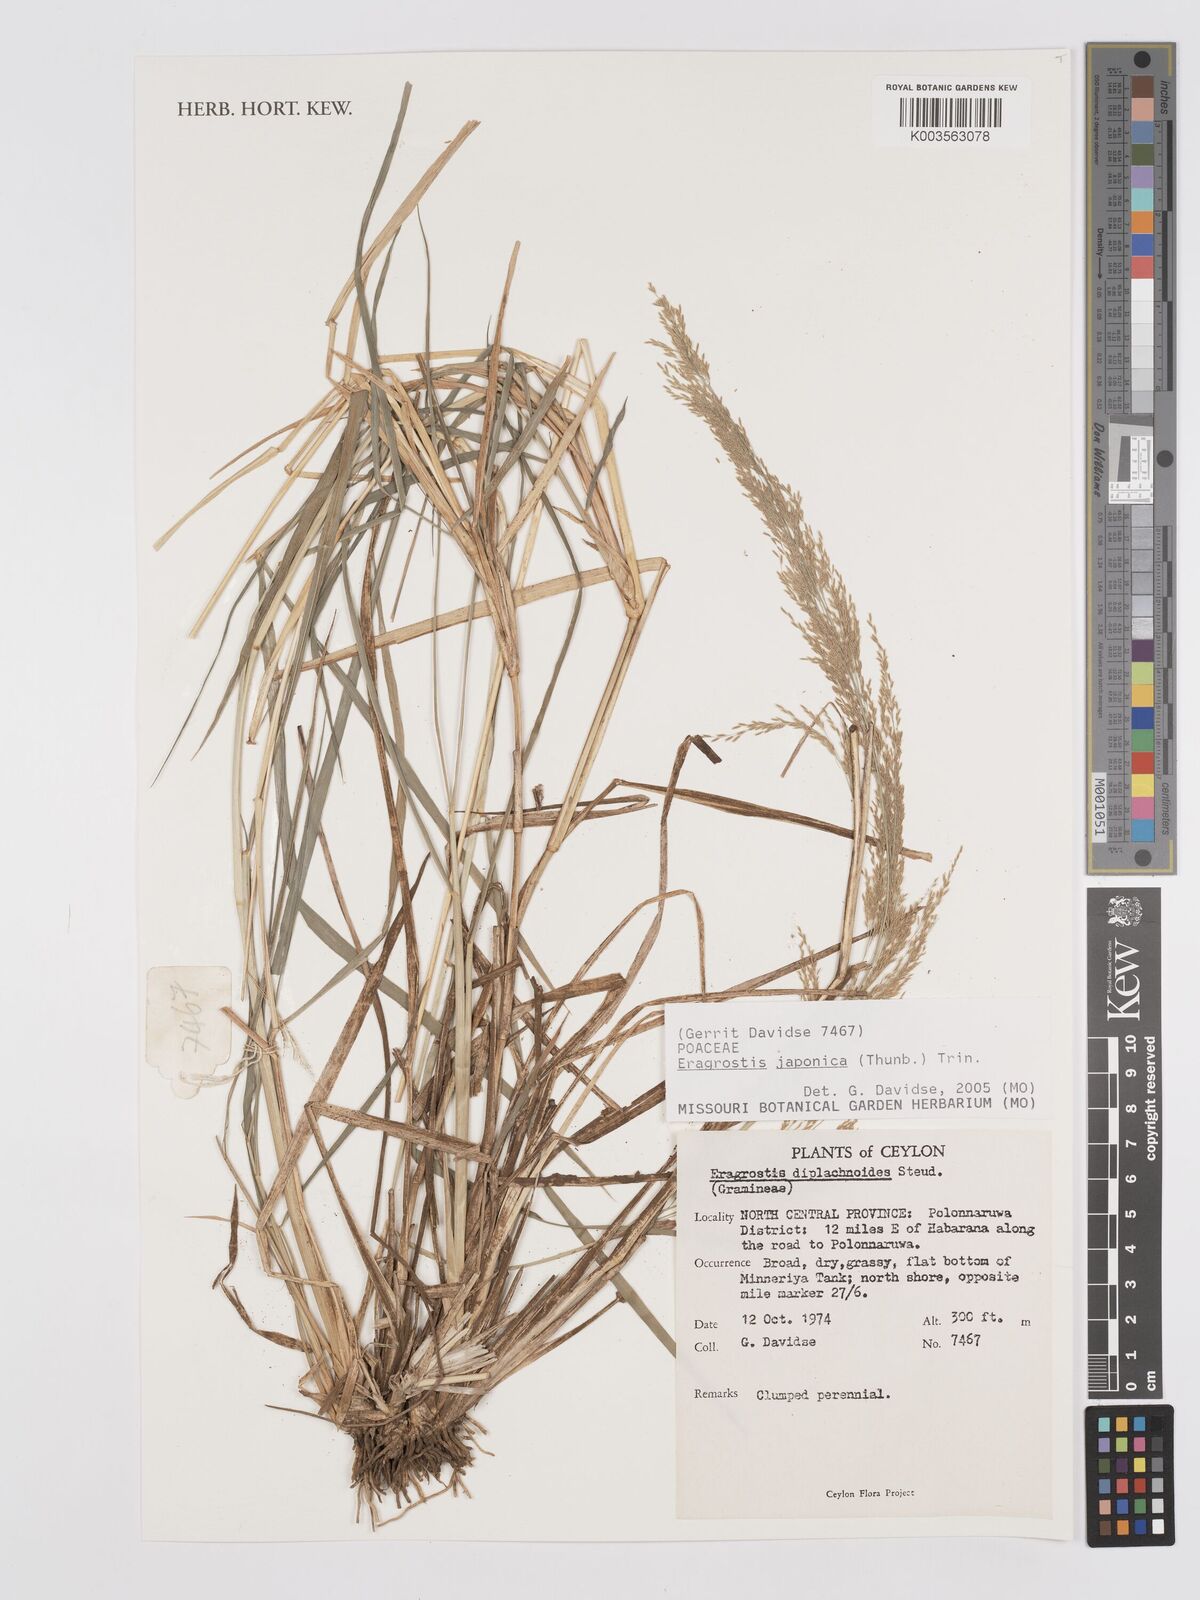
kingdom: Plantae
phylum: Tracheophyta
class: Liliopsida
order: Poales
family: Poaceae
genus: Eragrostis
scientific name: Eragrostis japonica
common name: Pond lovegrass
